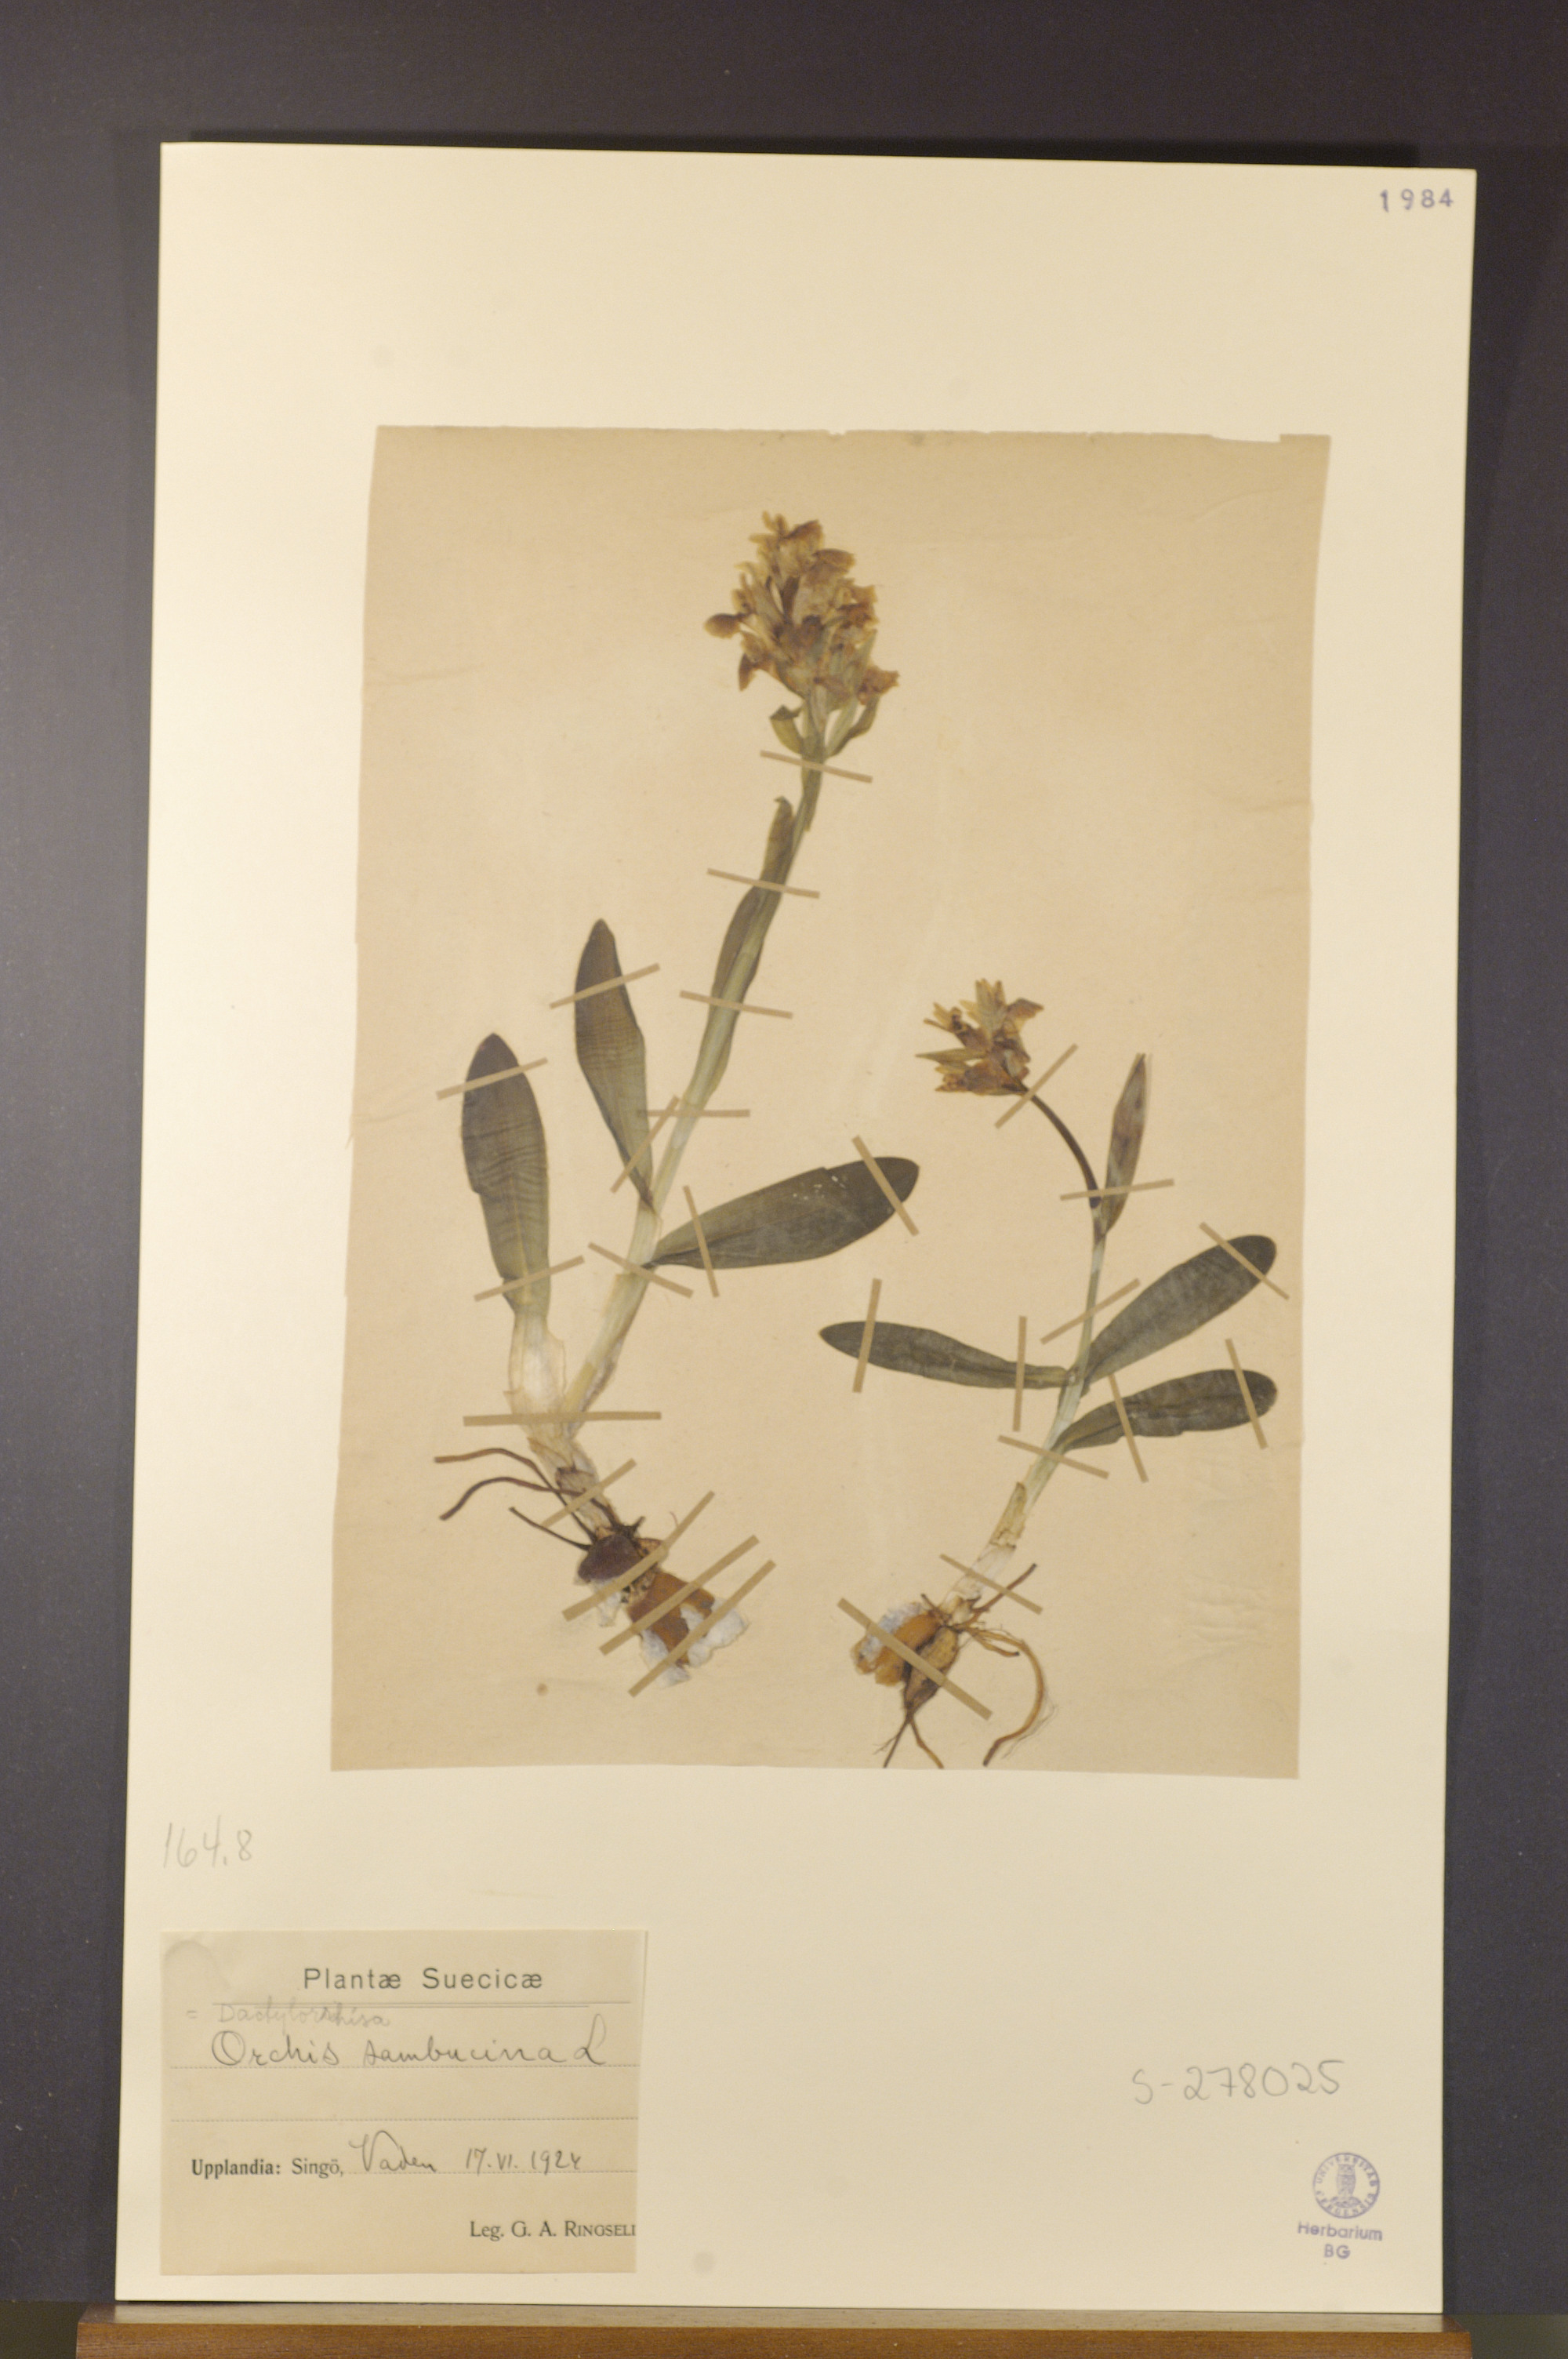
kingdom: Plantae
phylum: Tracheophyta
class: Liliopsida
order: Asparagales
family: Orchidaceae
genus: Dactylorhiza
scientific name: Dactylorhiza sambucina
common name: Elder-flowered orchid
